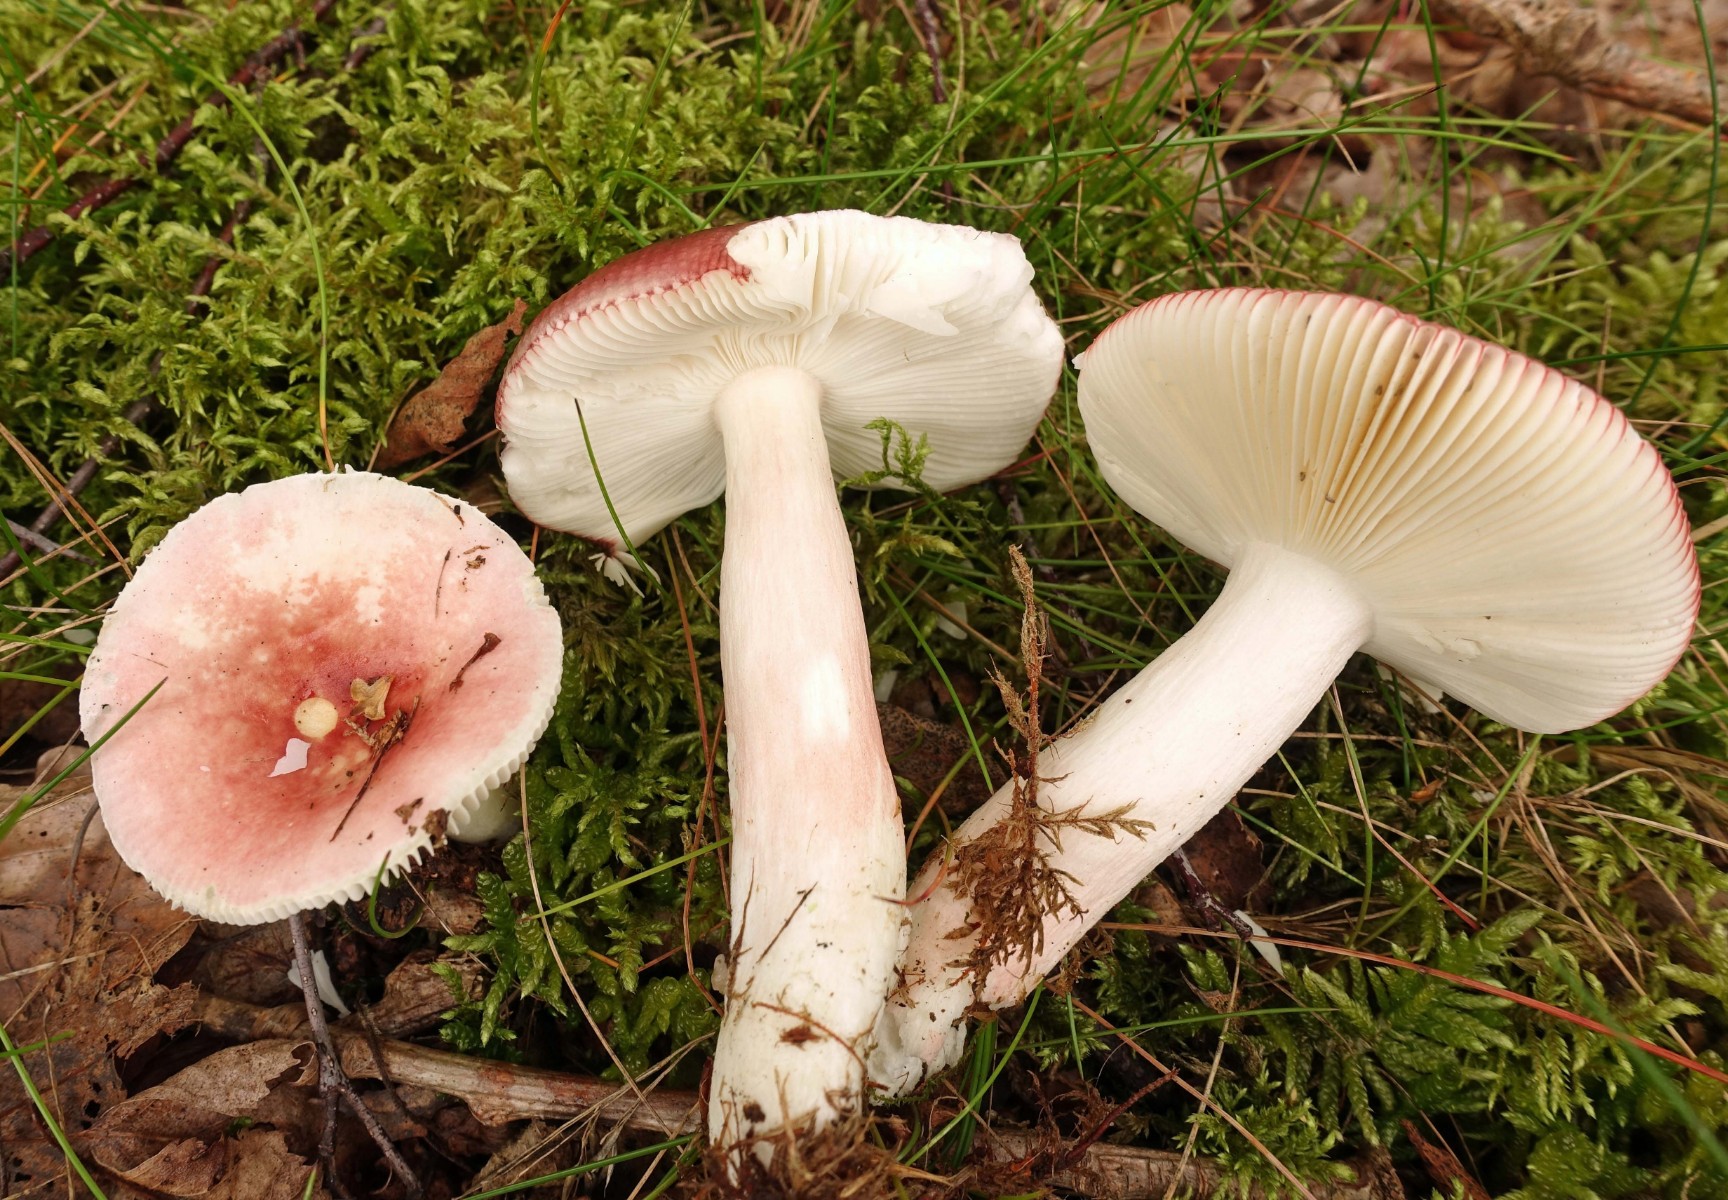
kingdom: Fungi
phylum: Basidiomycota
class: Agaricomycetes
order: Russulales
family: Russulaceae
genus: Russula
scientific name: Russula nitida
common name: året skørhat
